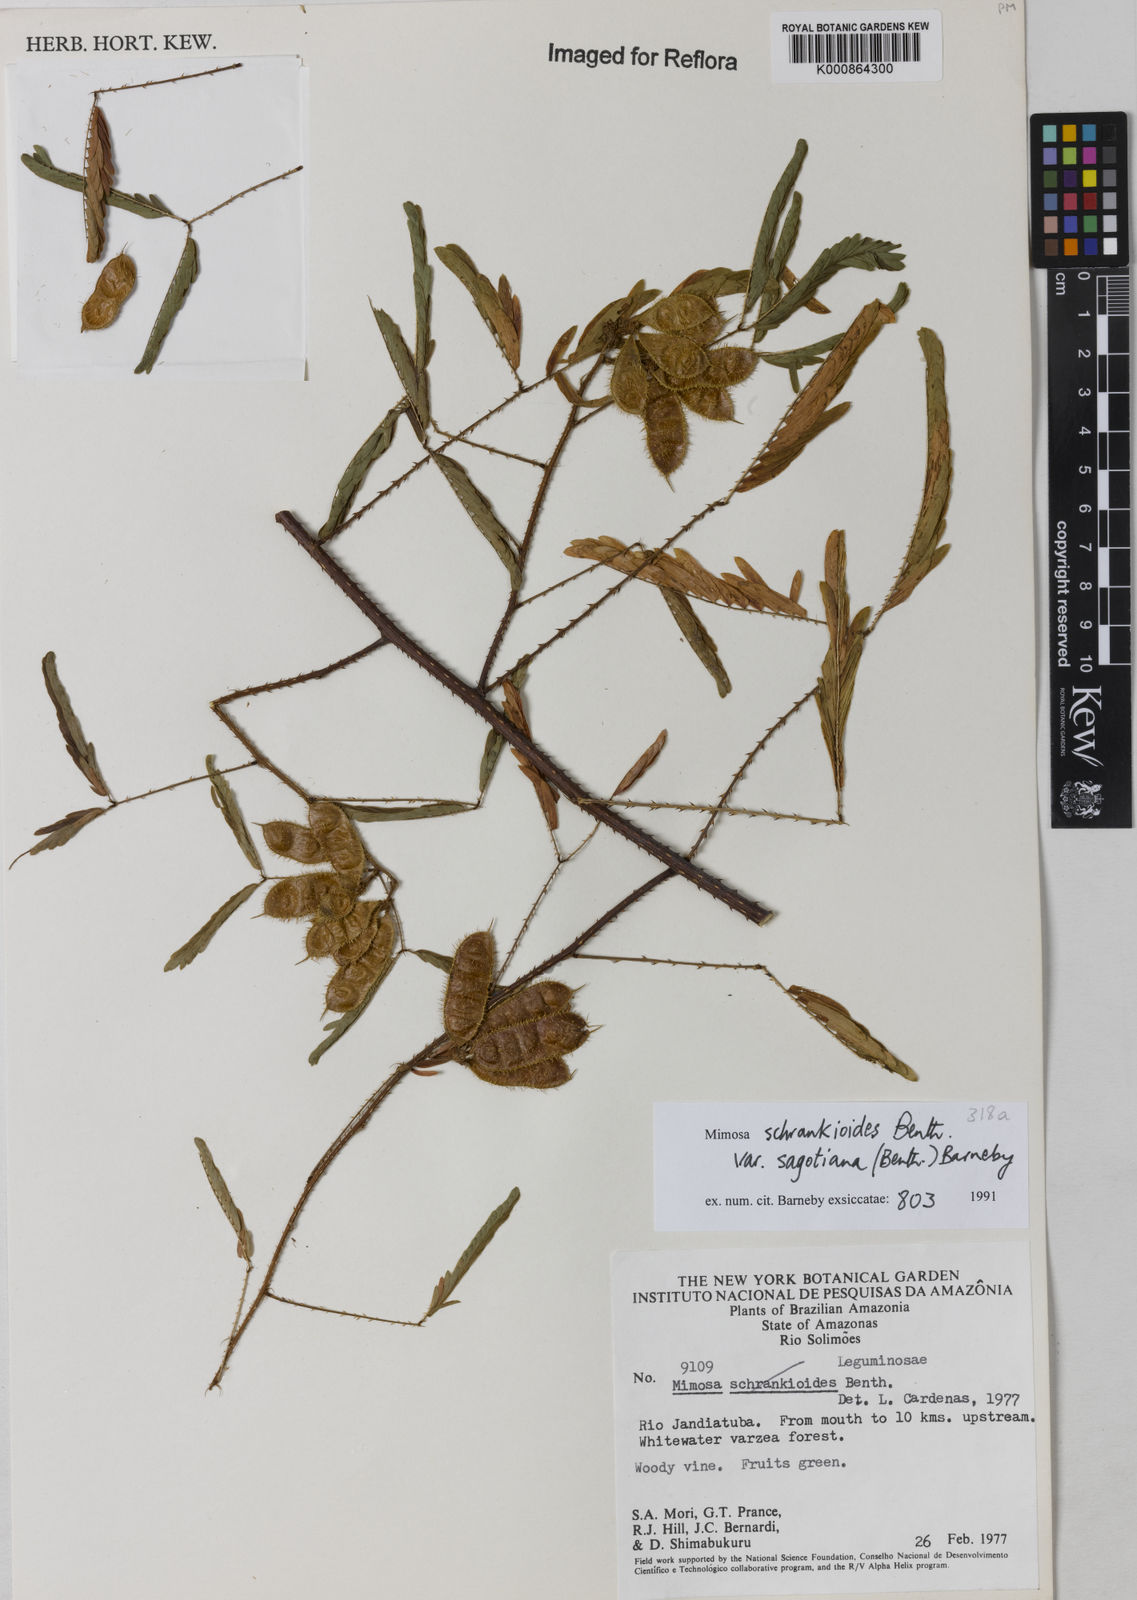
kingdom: Plantae
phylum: Tracheophyta
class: Magnoliopsida
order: Fabales
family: Fabaceae
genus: Mimosa
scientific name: Mimosa schrankioides
